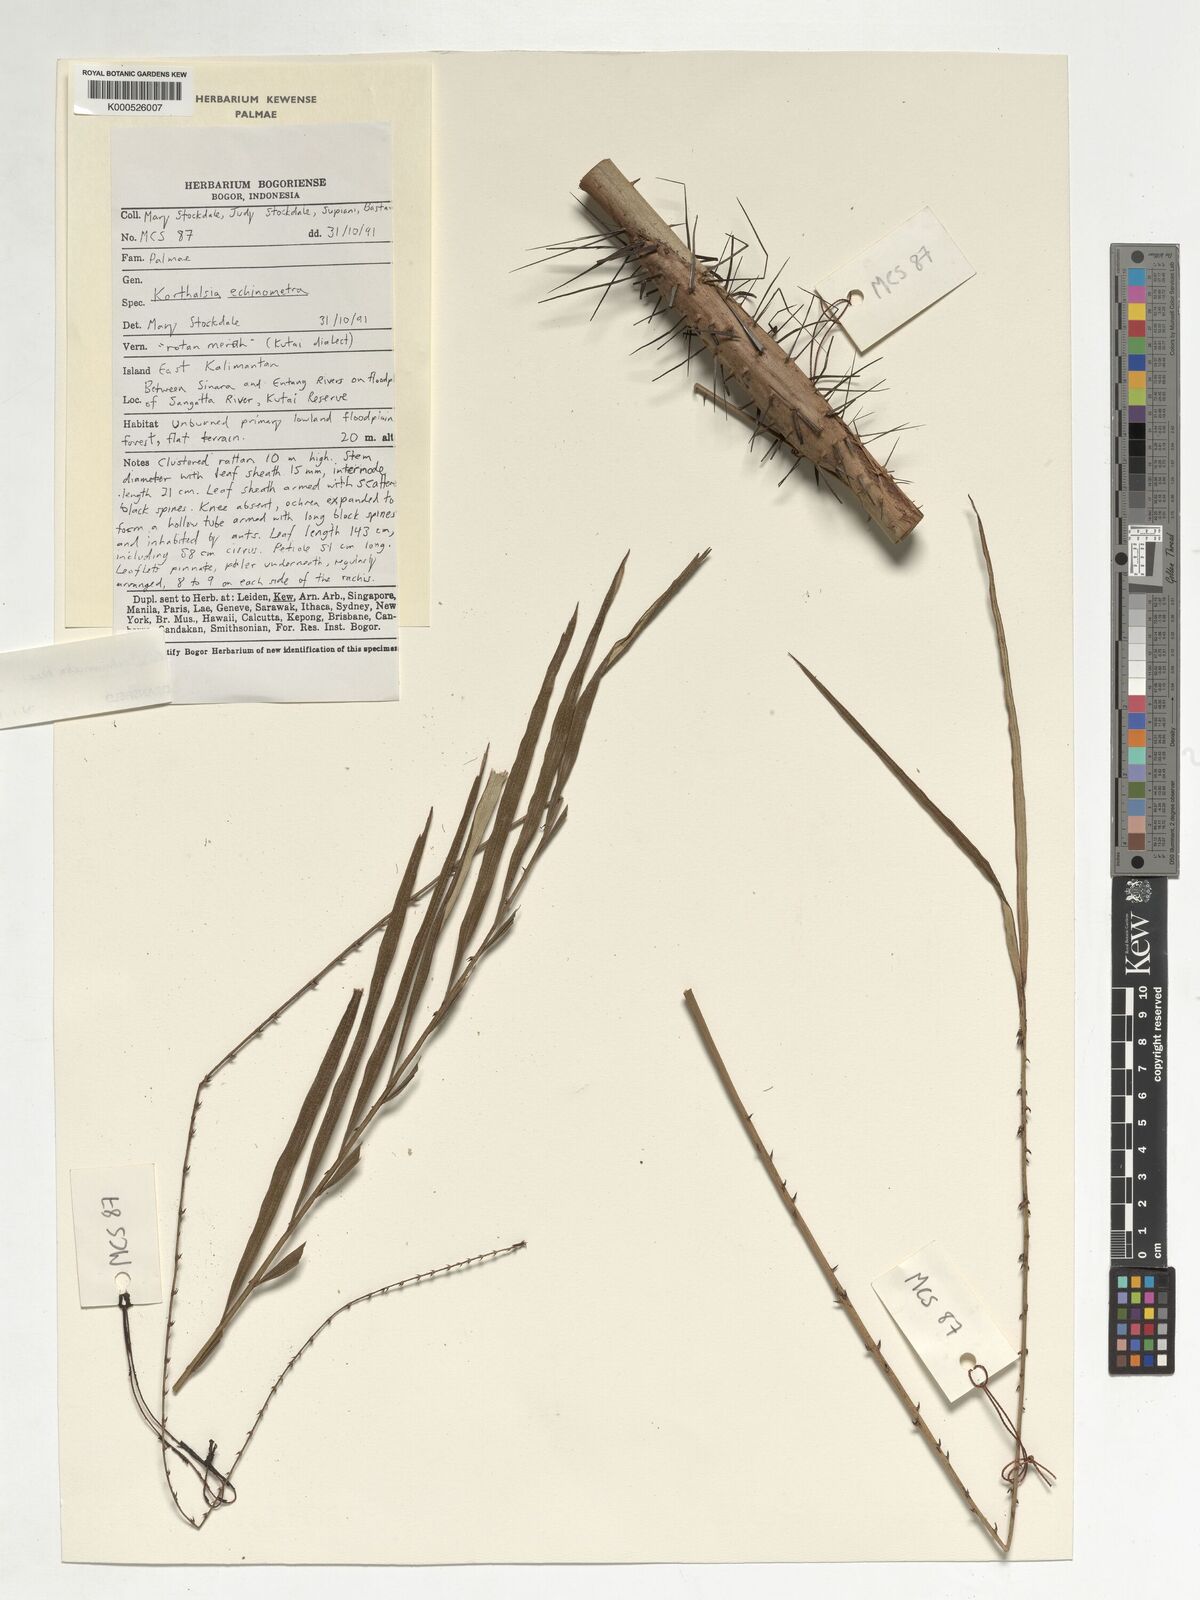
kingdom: Plantae
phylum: Tracheophyta
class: Liliopsida
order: Arecales
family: Arecaceae
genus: Korthalsia
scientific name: Korthalsia echinometra
